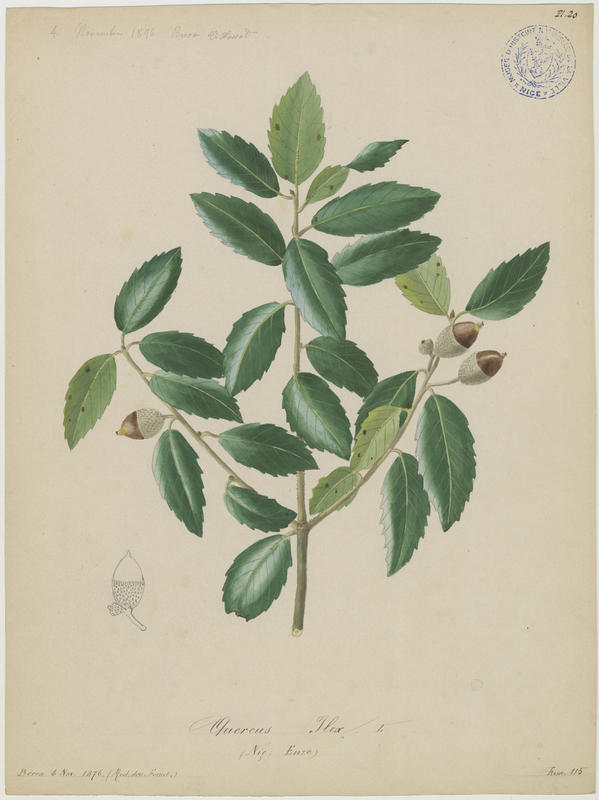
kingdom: Plantae
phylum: Tracheophyta
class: Magnoliopsida
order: Fagales
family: Fagaceae
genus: Quercus
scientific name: Quercus ilex
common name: Evergreen oak
